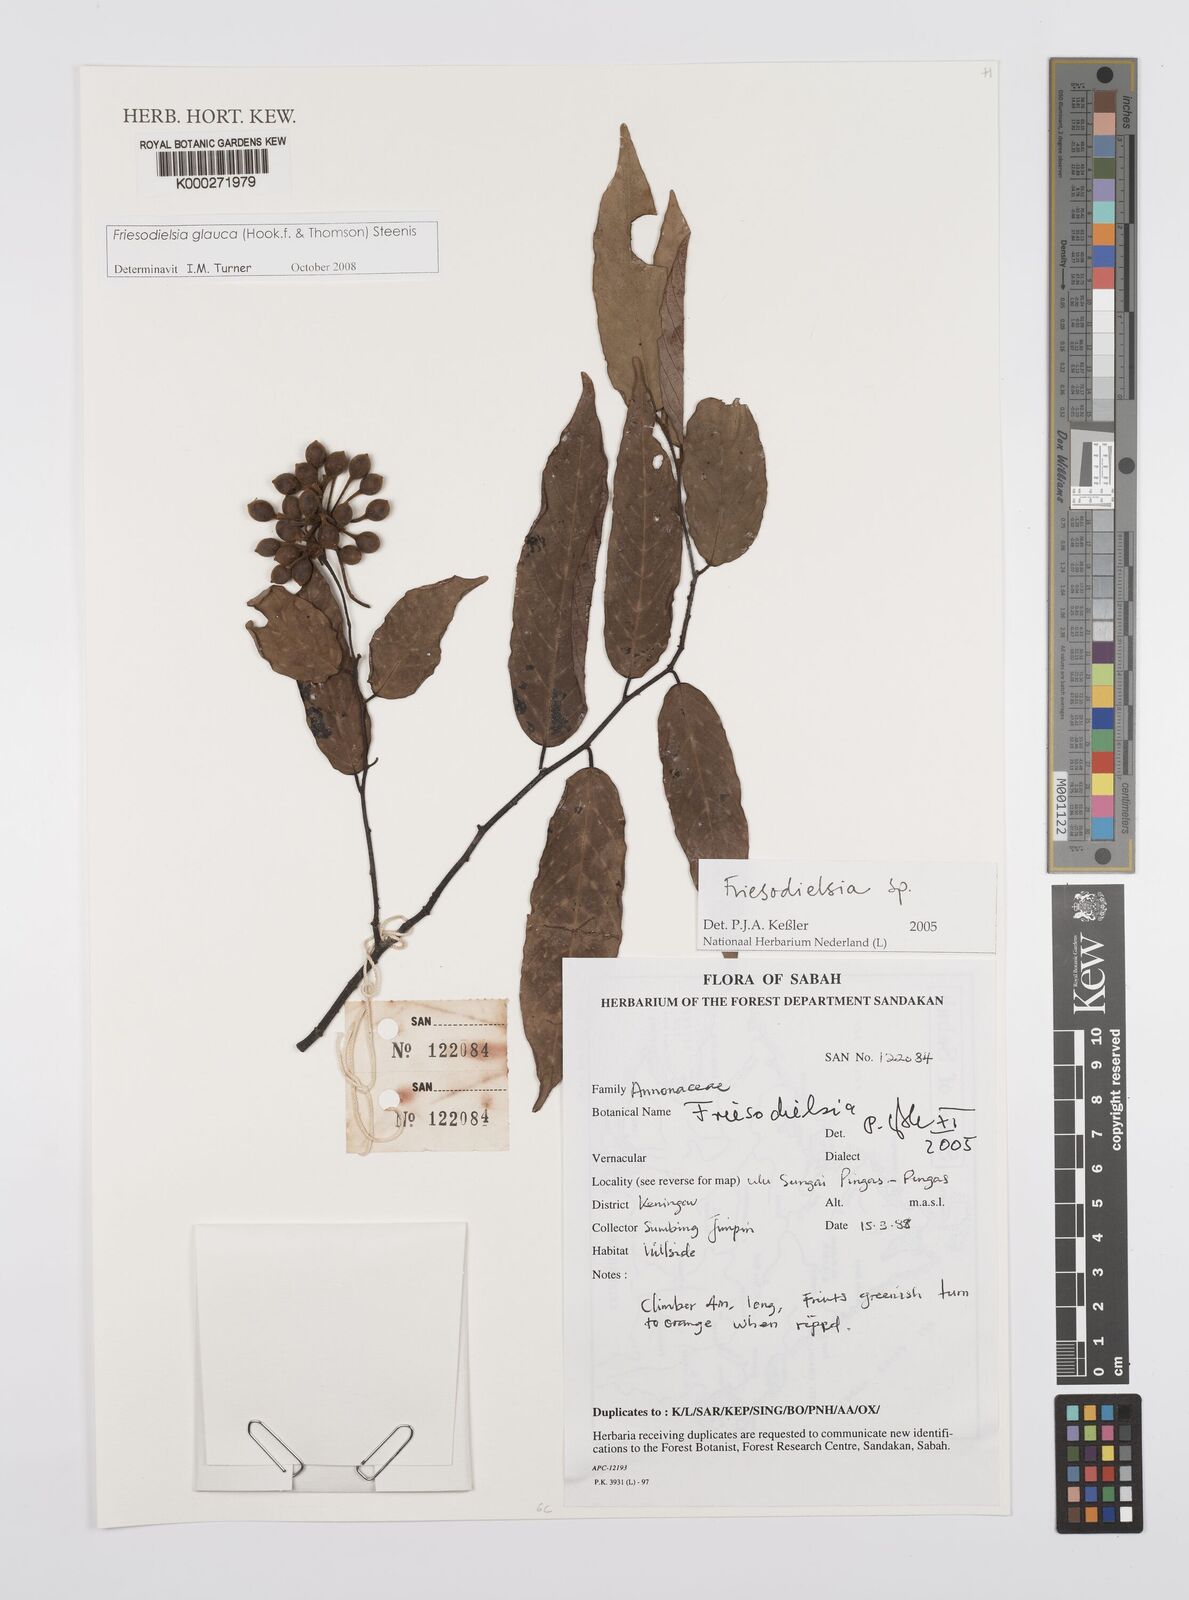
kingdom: Plantae
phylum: Tracheophyta
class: Magnoliopsida
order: Magnoliales
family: Annonaceae
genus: Friesodielsia
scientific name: Friesodielsia
